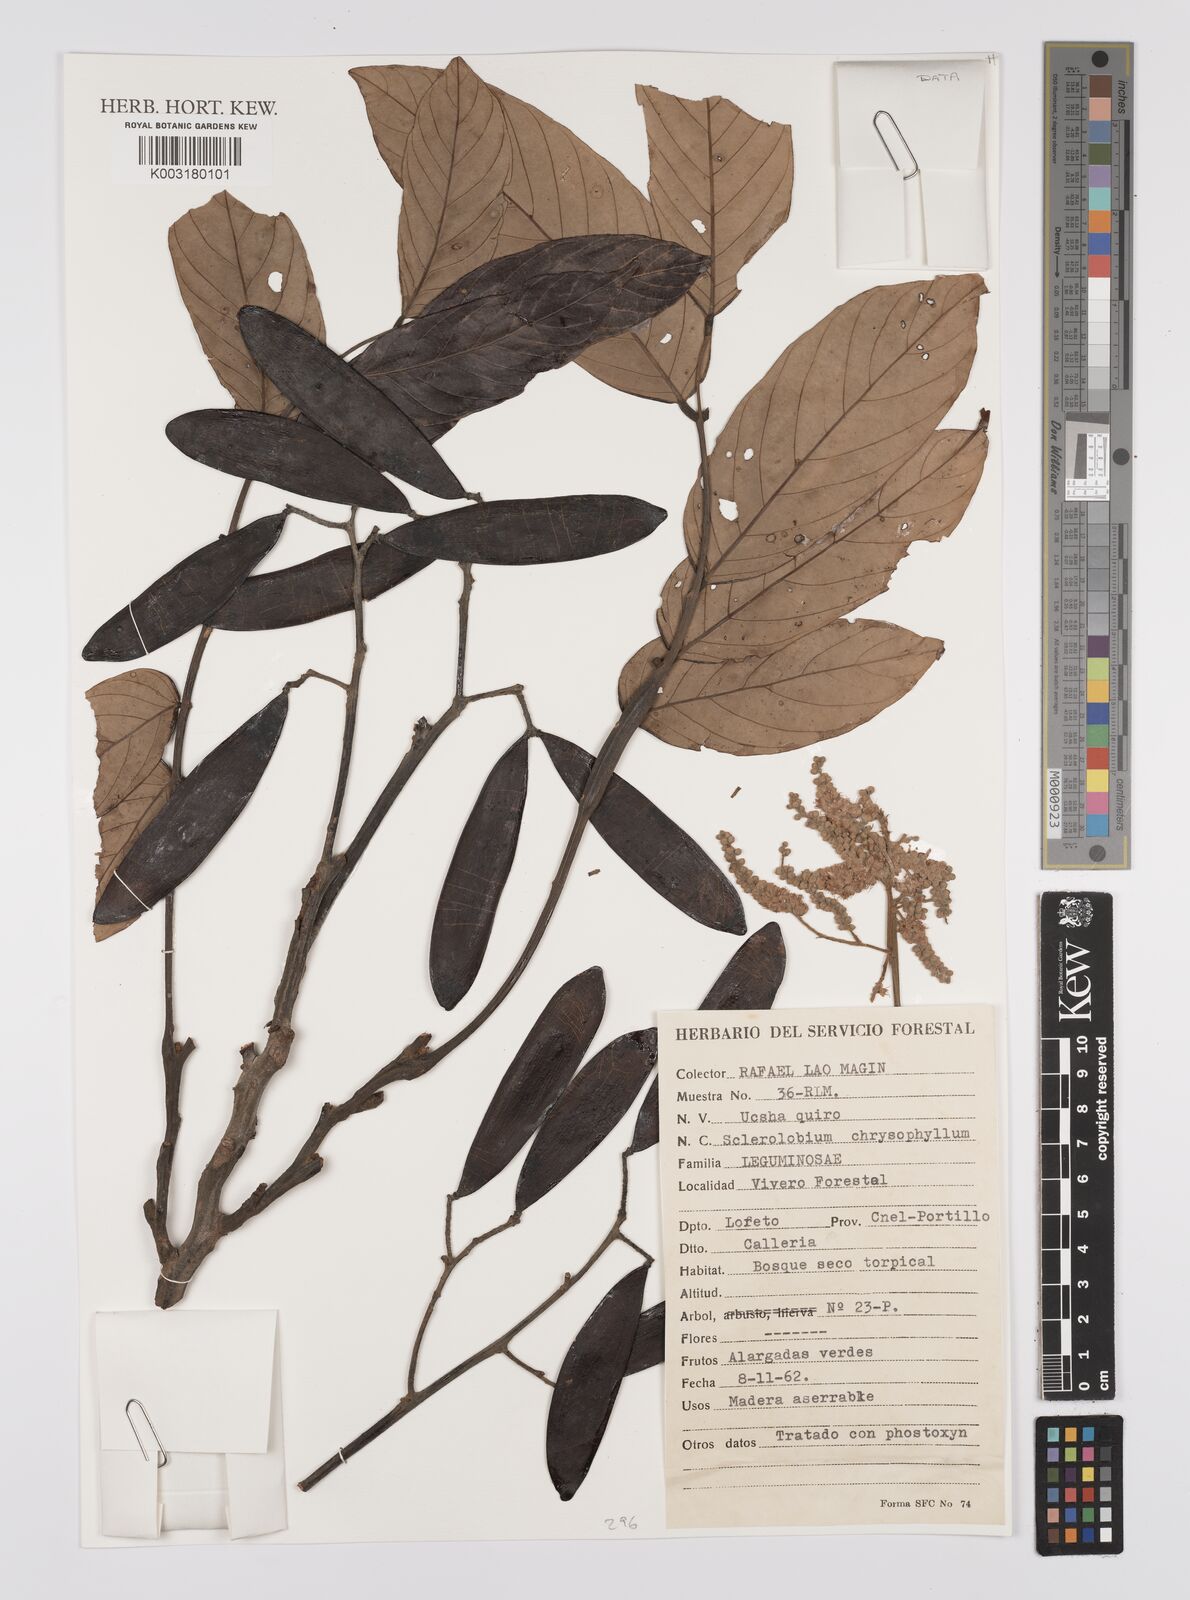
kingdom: Plantae
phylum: Tracheophyta
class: Magnoliopsida
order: Fabales
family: Fabaceae
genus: Tachigali
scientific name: Tachigali chrysophylla
